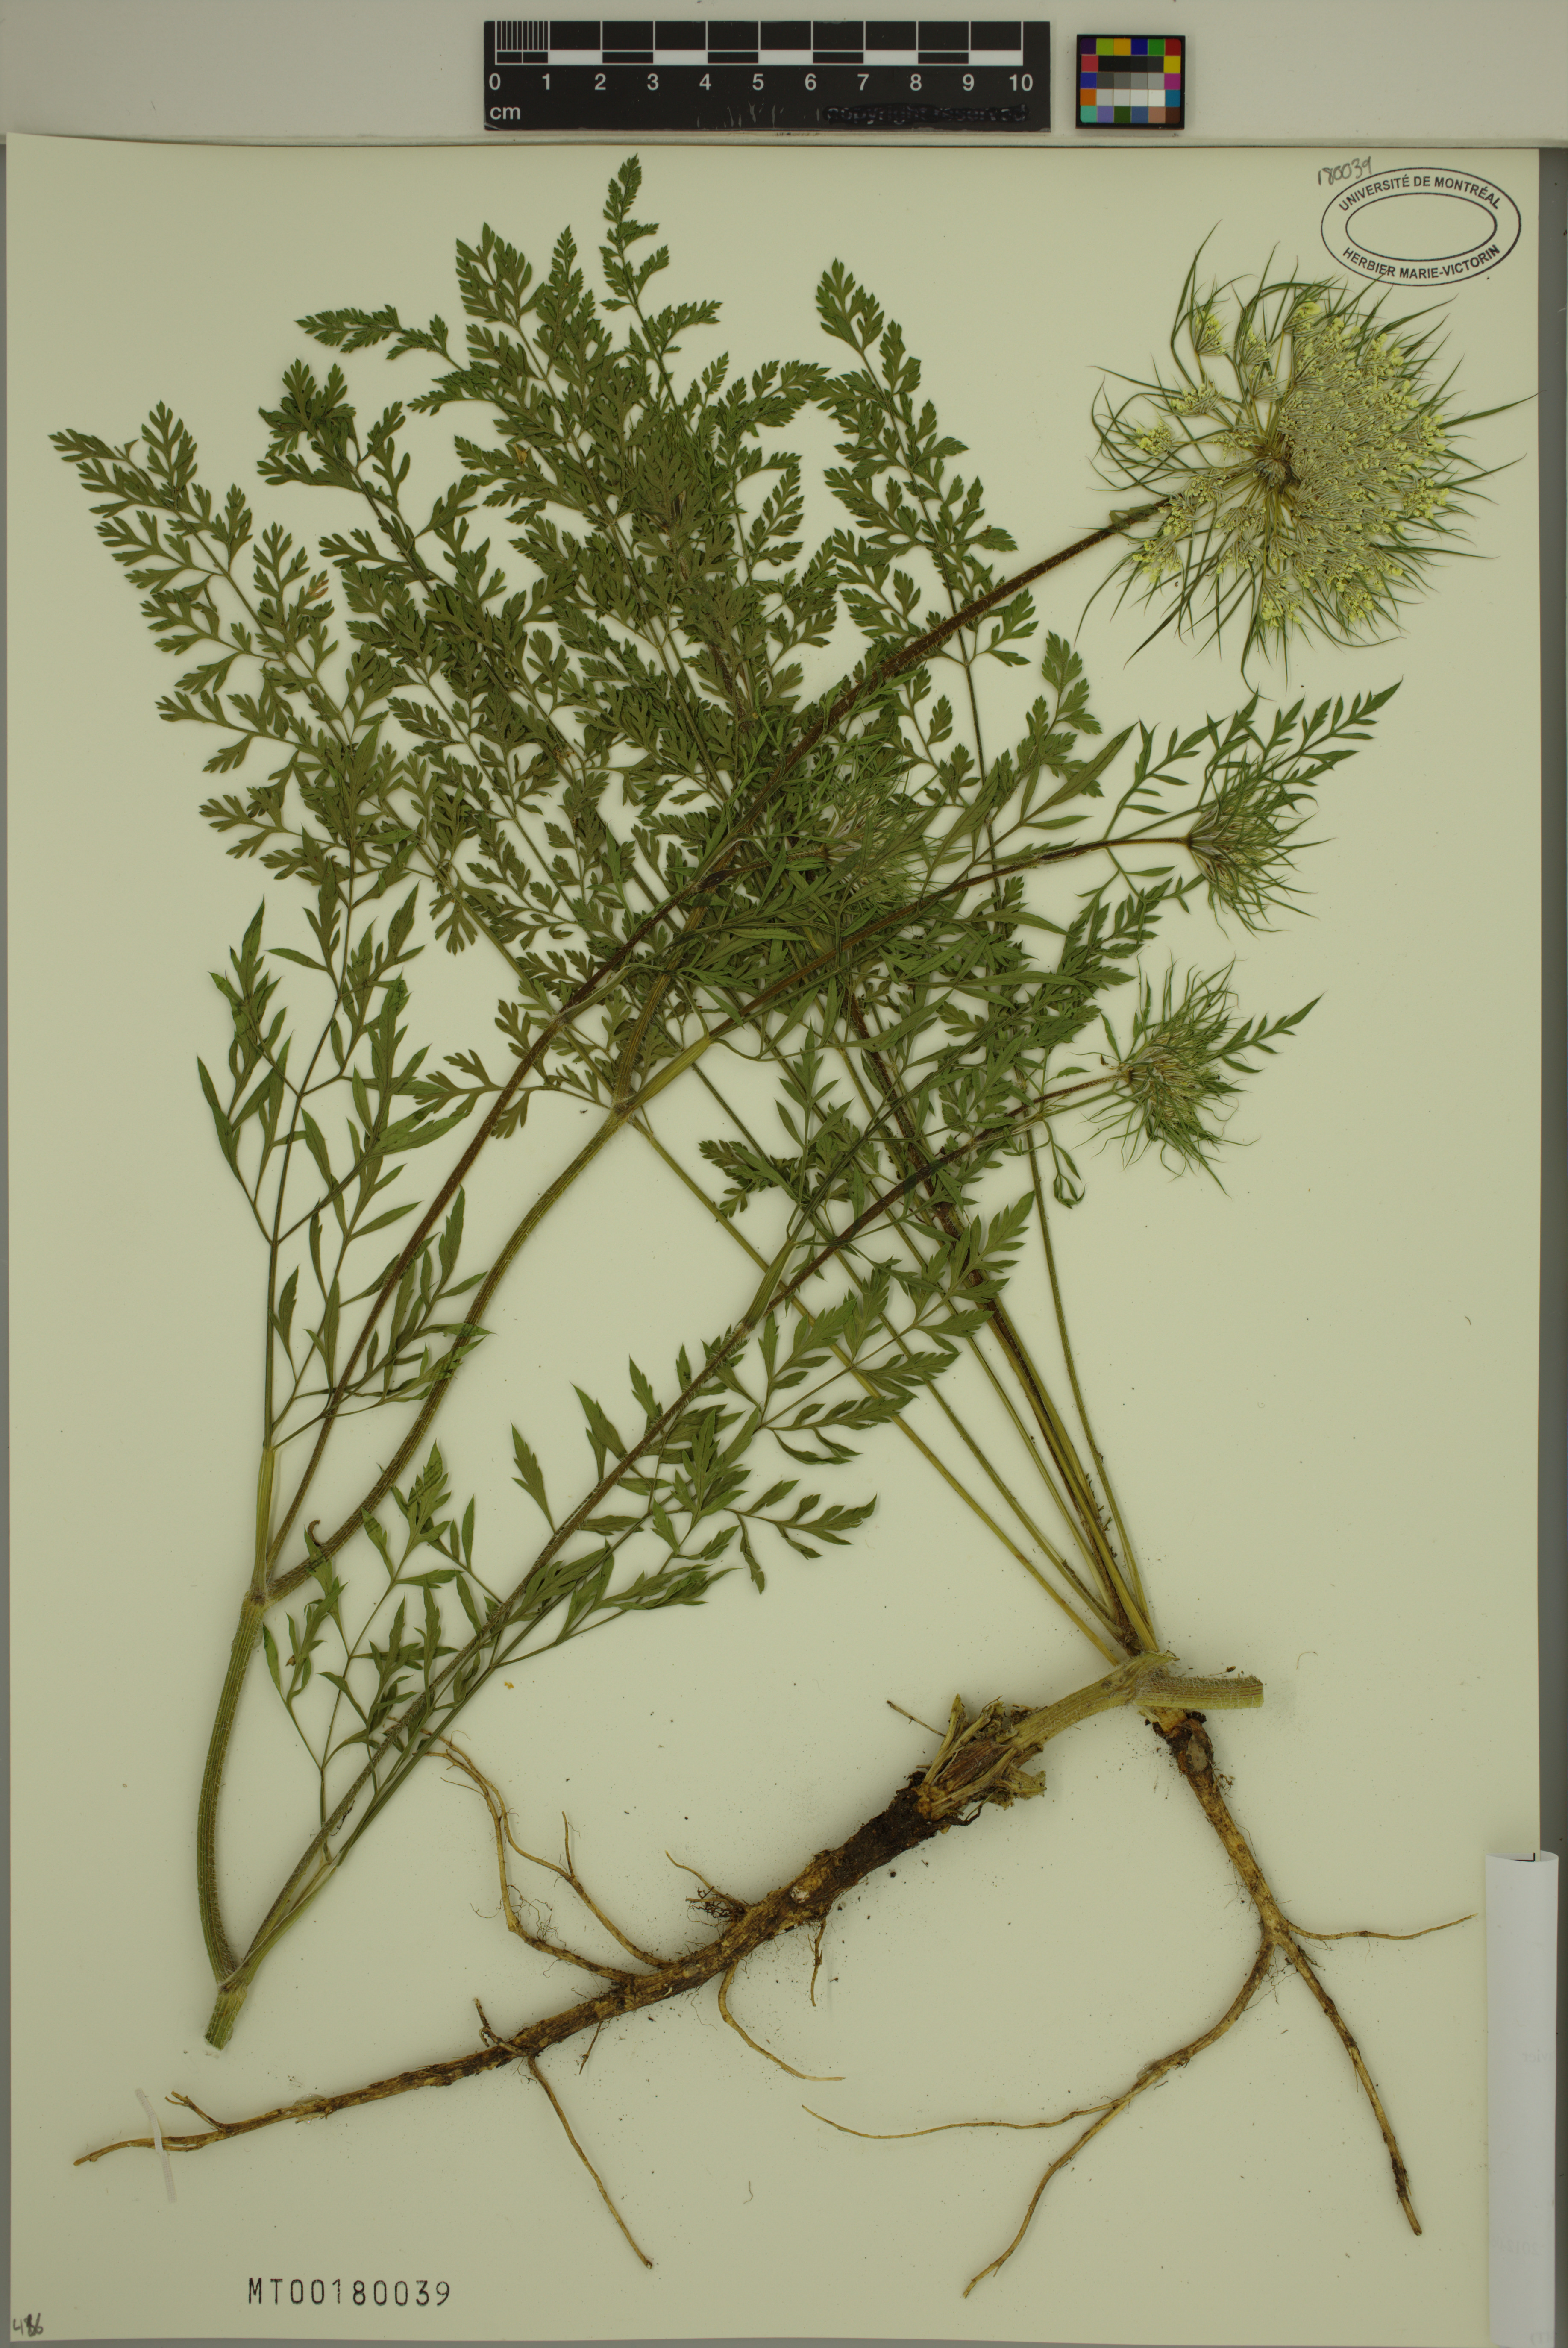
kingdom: Plantae
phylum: Tracheophyta
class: Magnoliopsida
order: Apiales
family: Apiaceae
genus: Daucus
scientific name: Daucus carota
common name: Wild carrot
